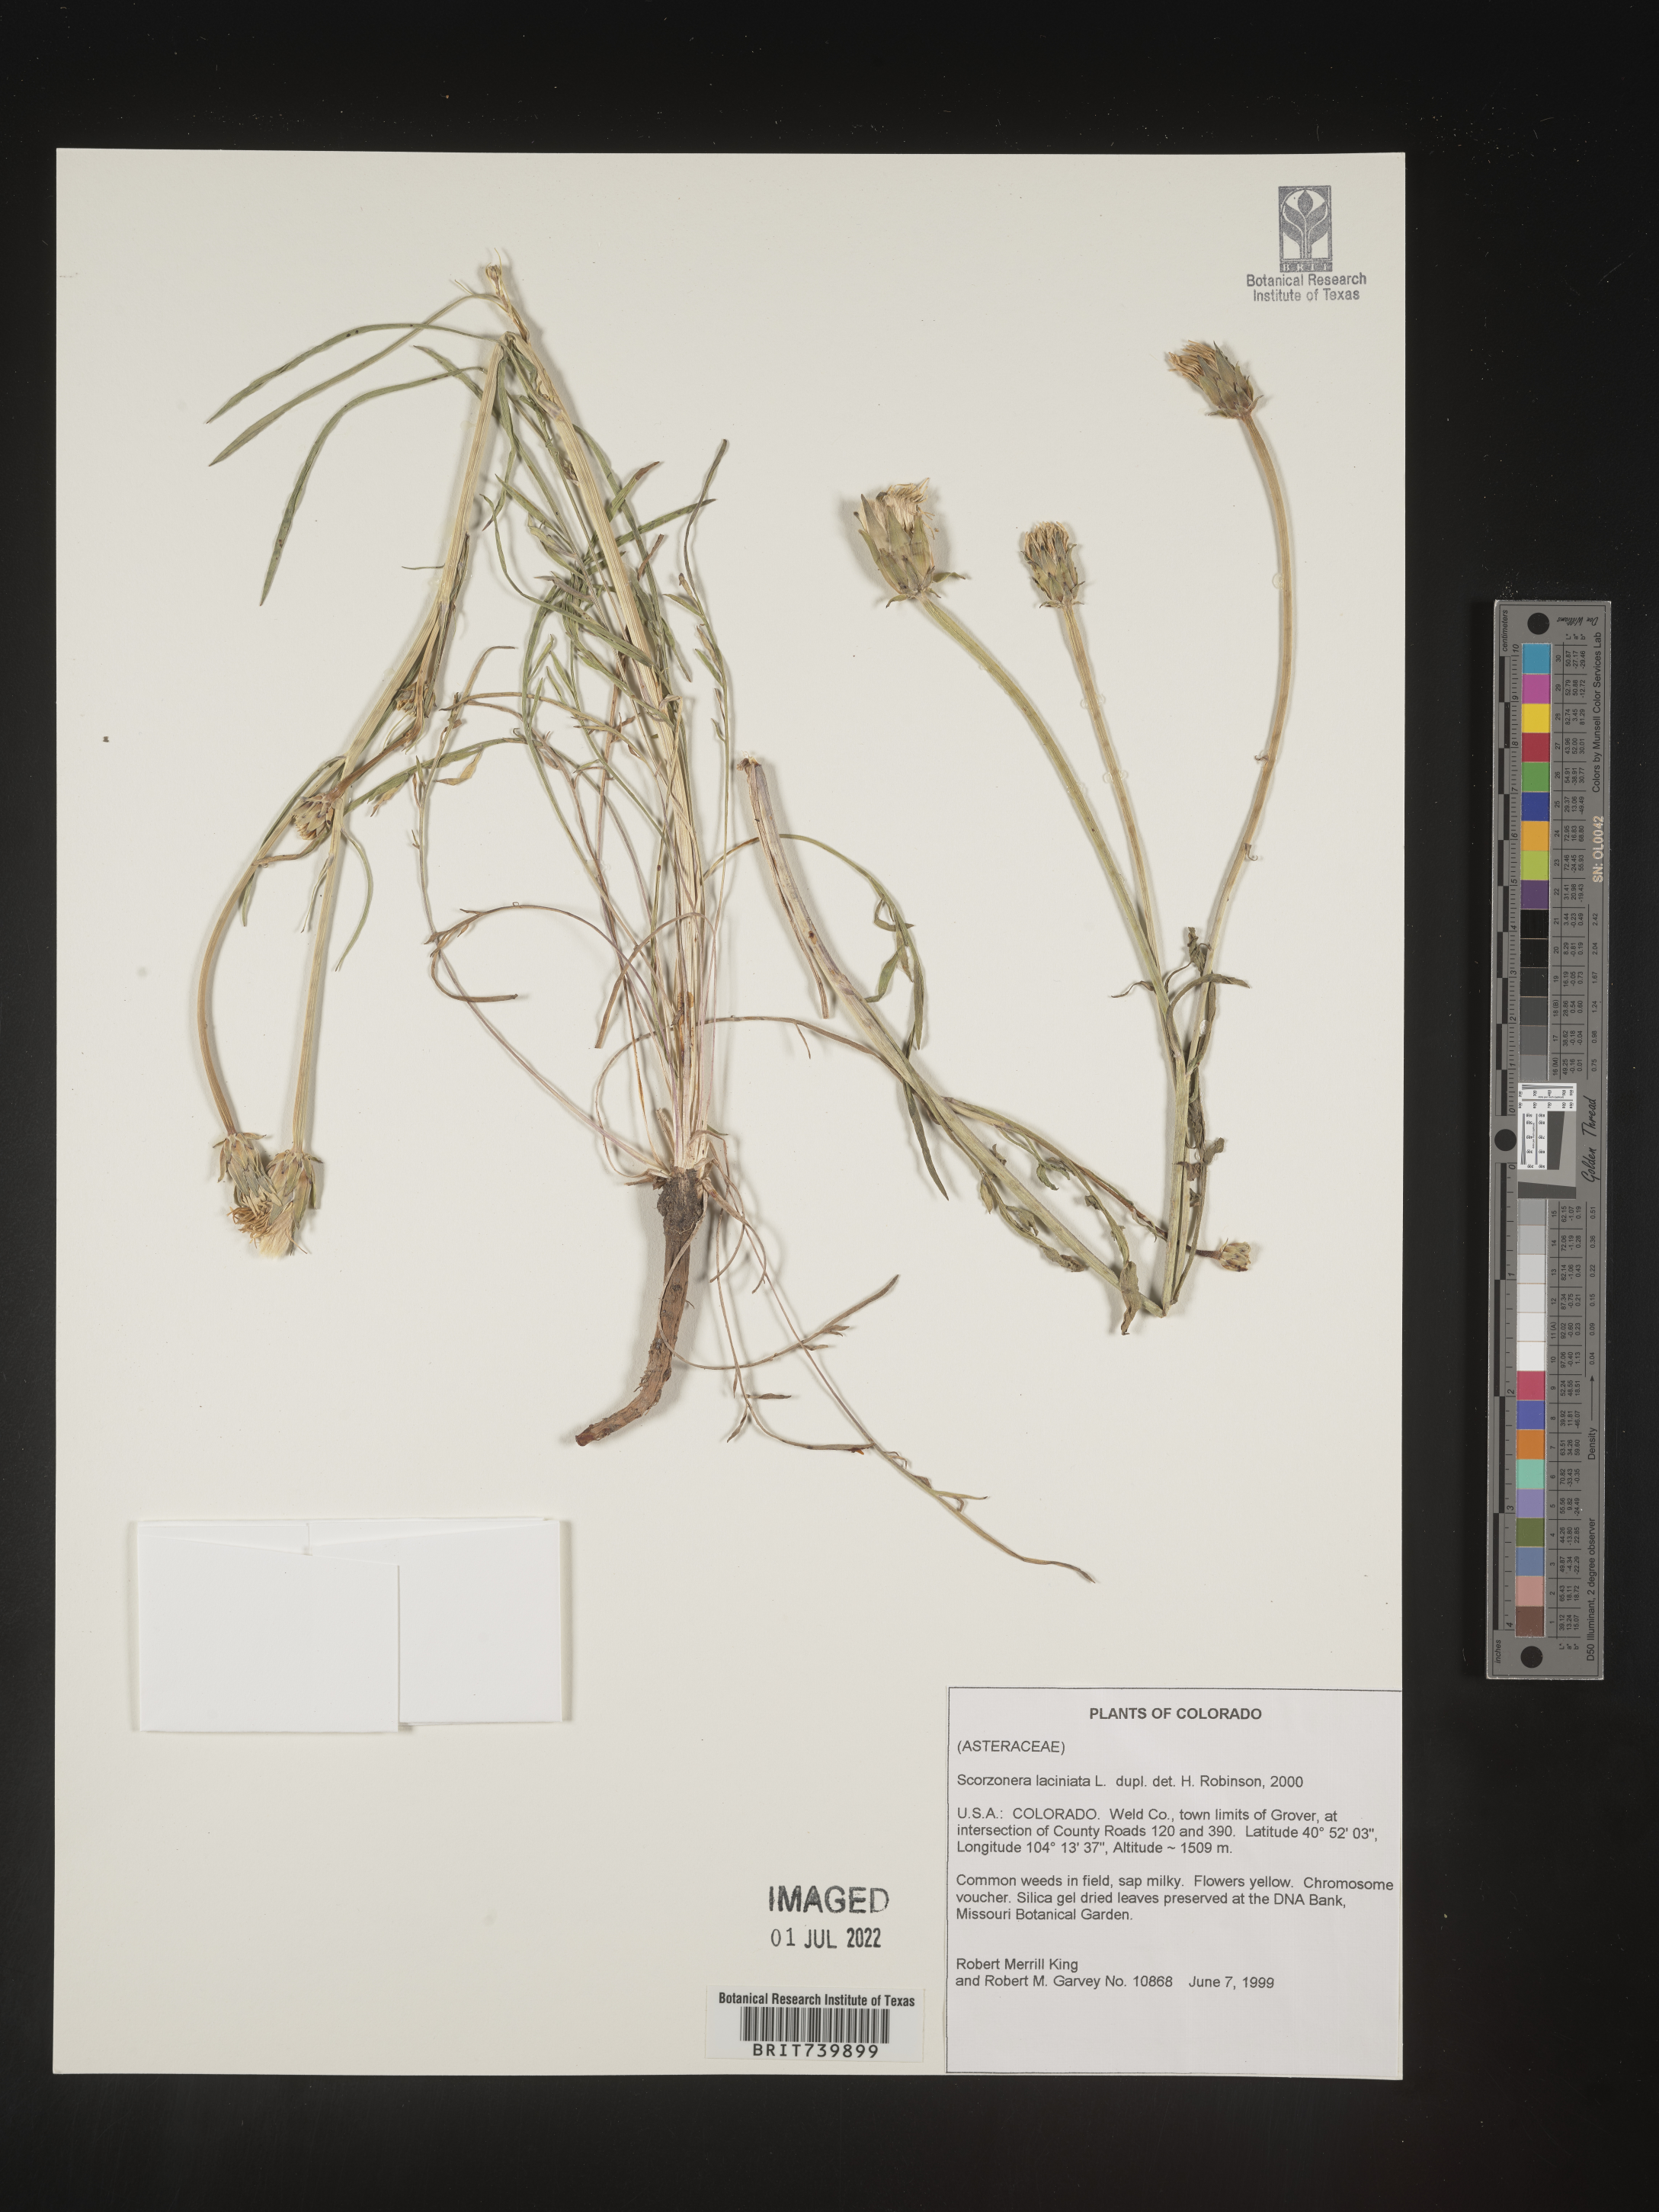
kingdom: Plantae
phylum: Tracheophyta
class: Magnoliopsida
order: Asterales
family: Asteraceae
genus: Scorzonera
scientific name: Scorzonera
